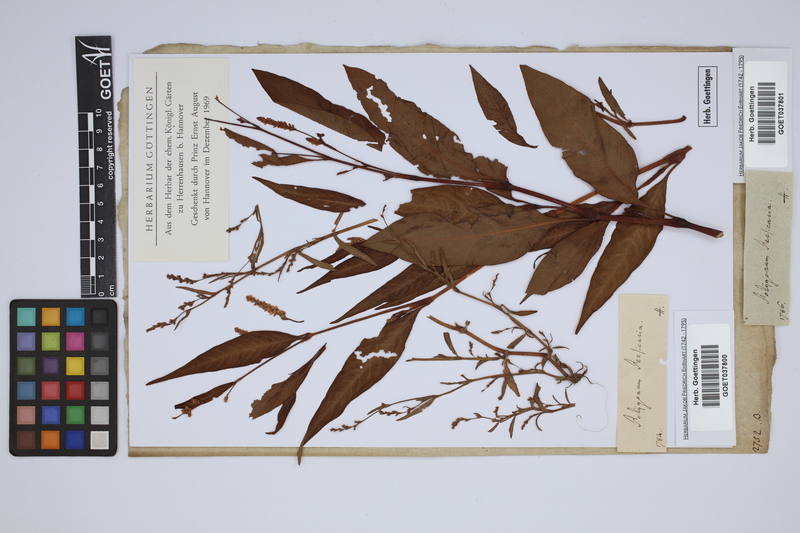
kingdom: Plantae
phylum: Tracheophyta
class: Magnoliopsida
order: Caryophyllales
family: Polygonaceae
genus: Persicaria
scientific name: Persicaria maculosa
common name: Redshank
